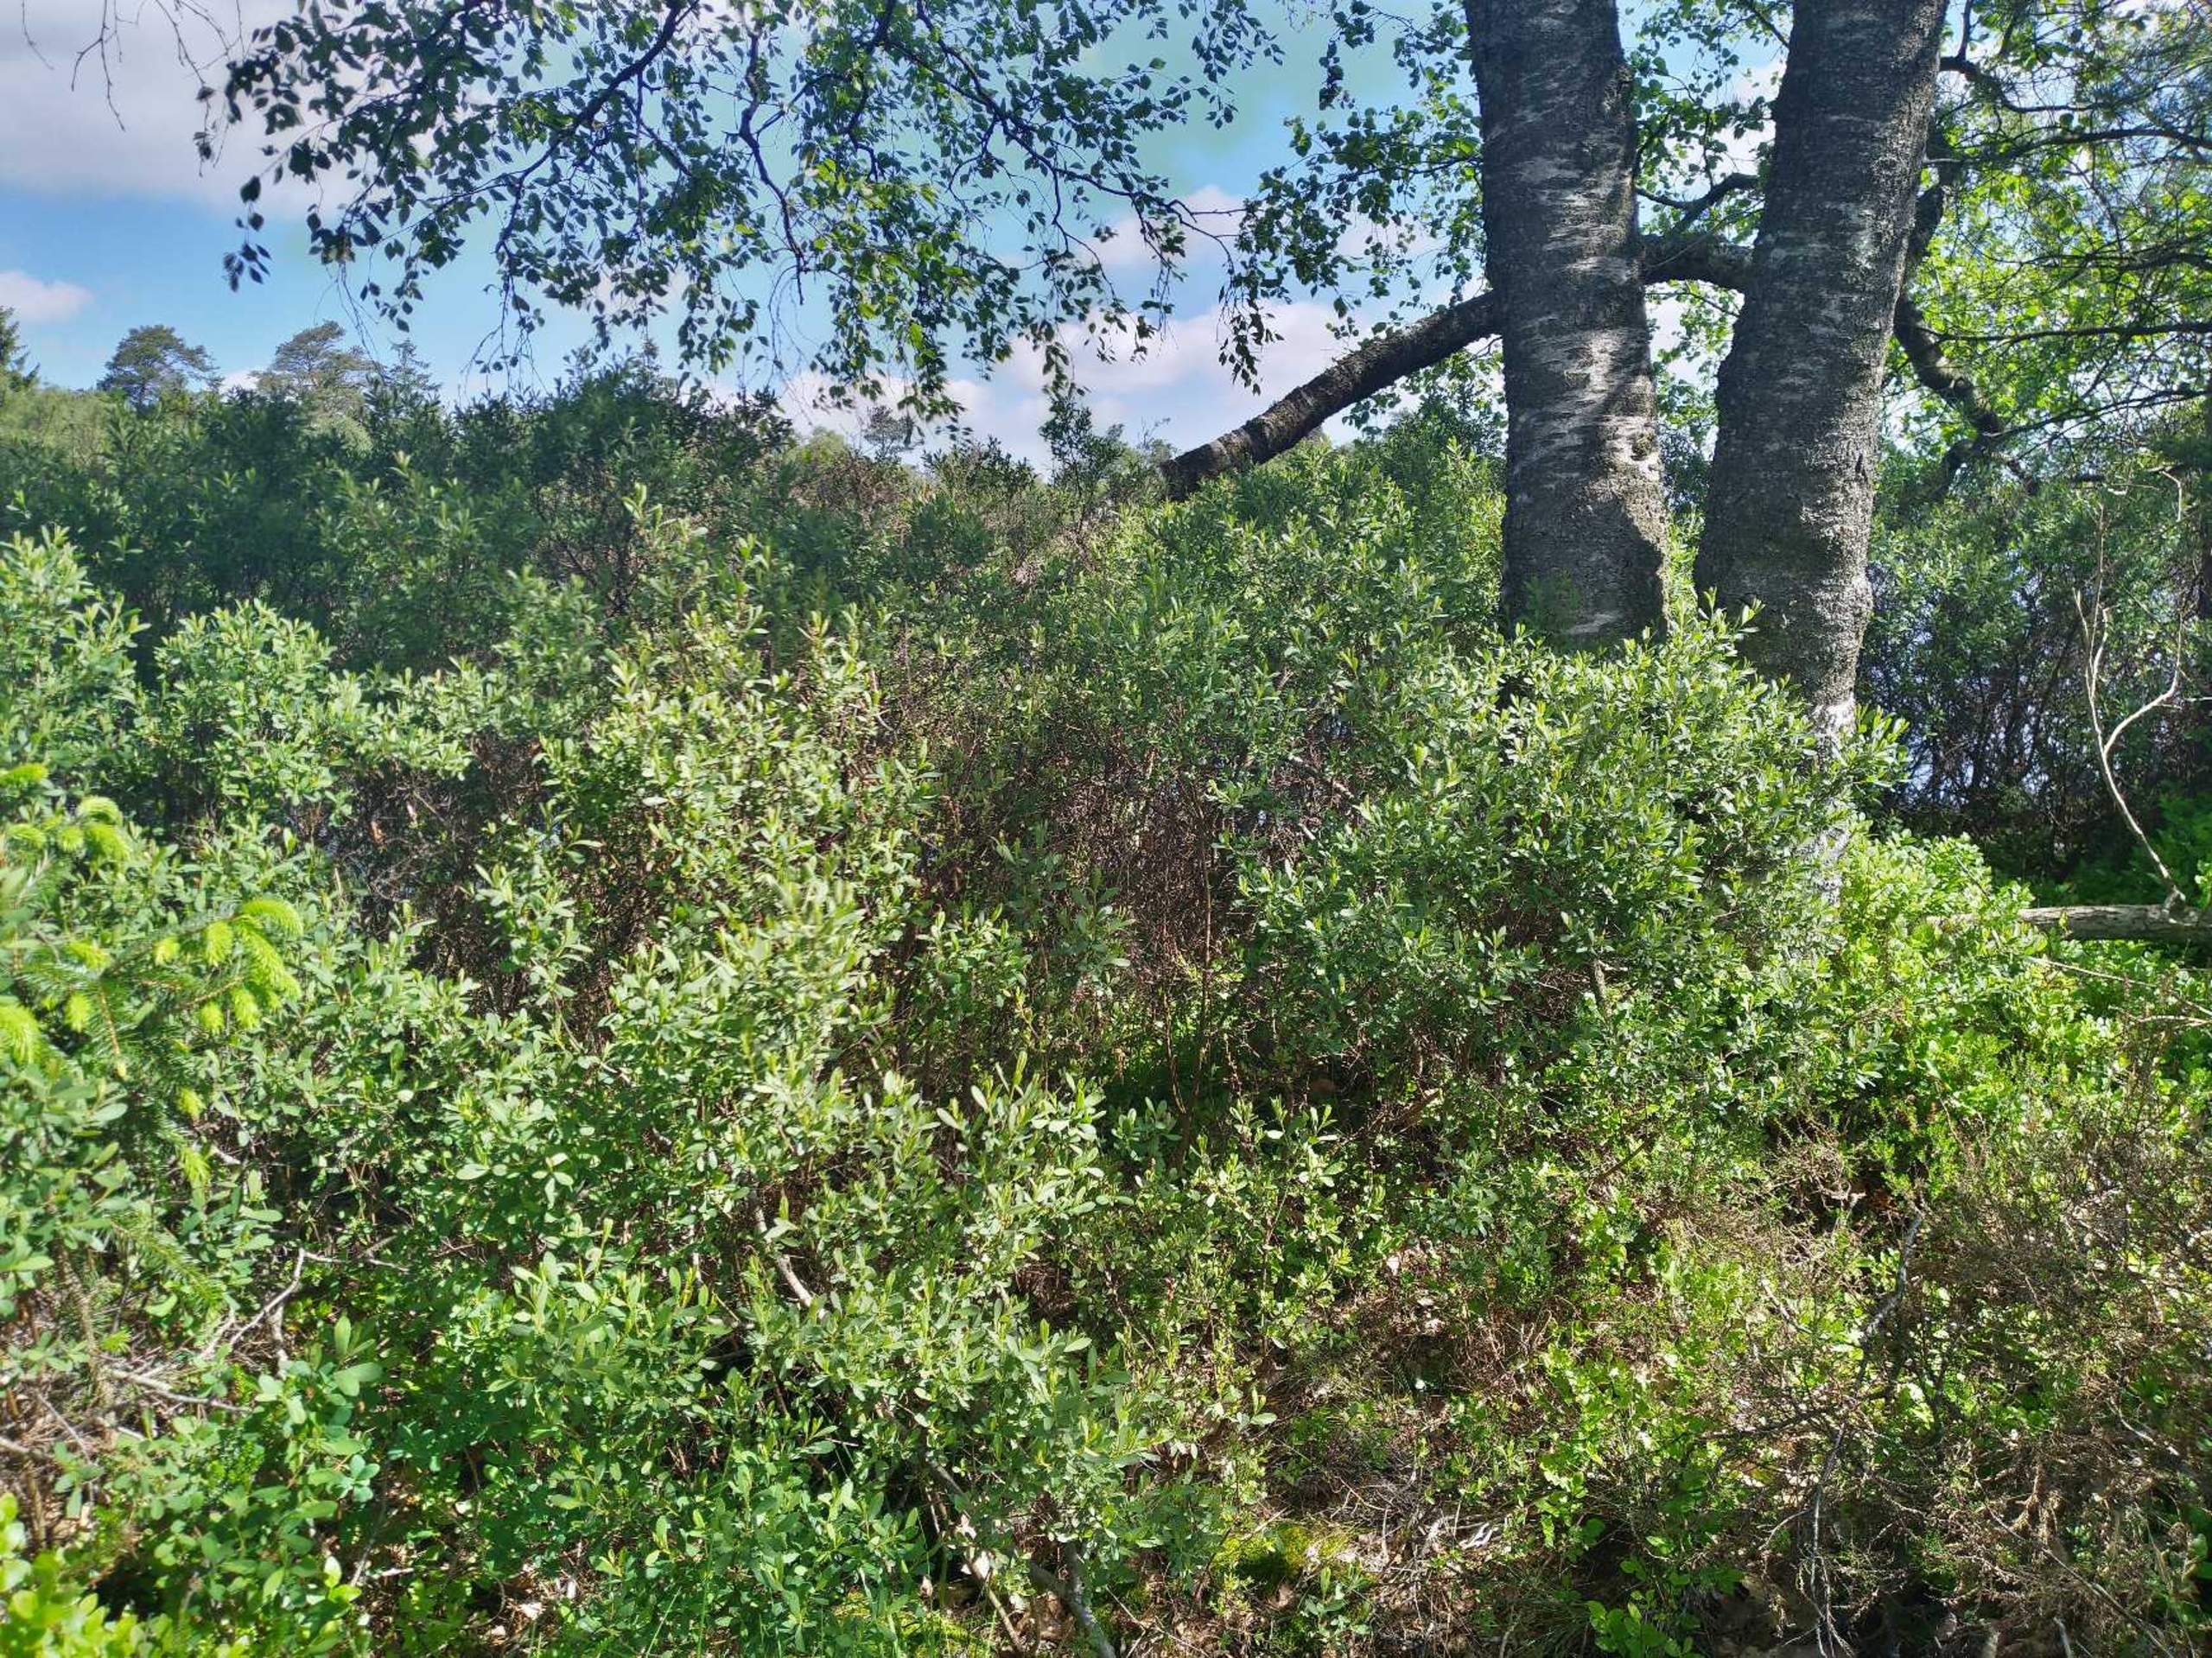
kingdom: Plantae
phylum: Tracheophyta
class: Magnoliopsida
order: Fagales
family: Myricaceae
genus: Myrica
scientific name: Myrica gale
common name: Pors
